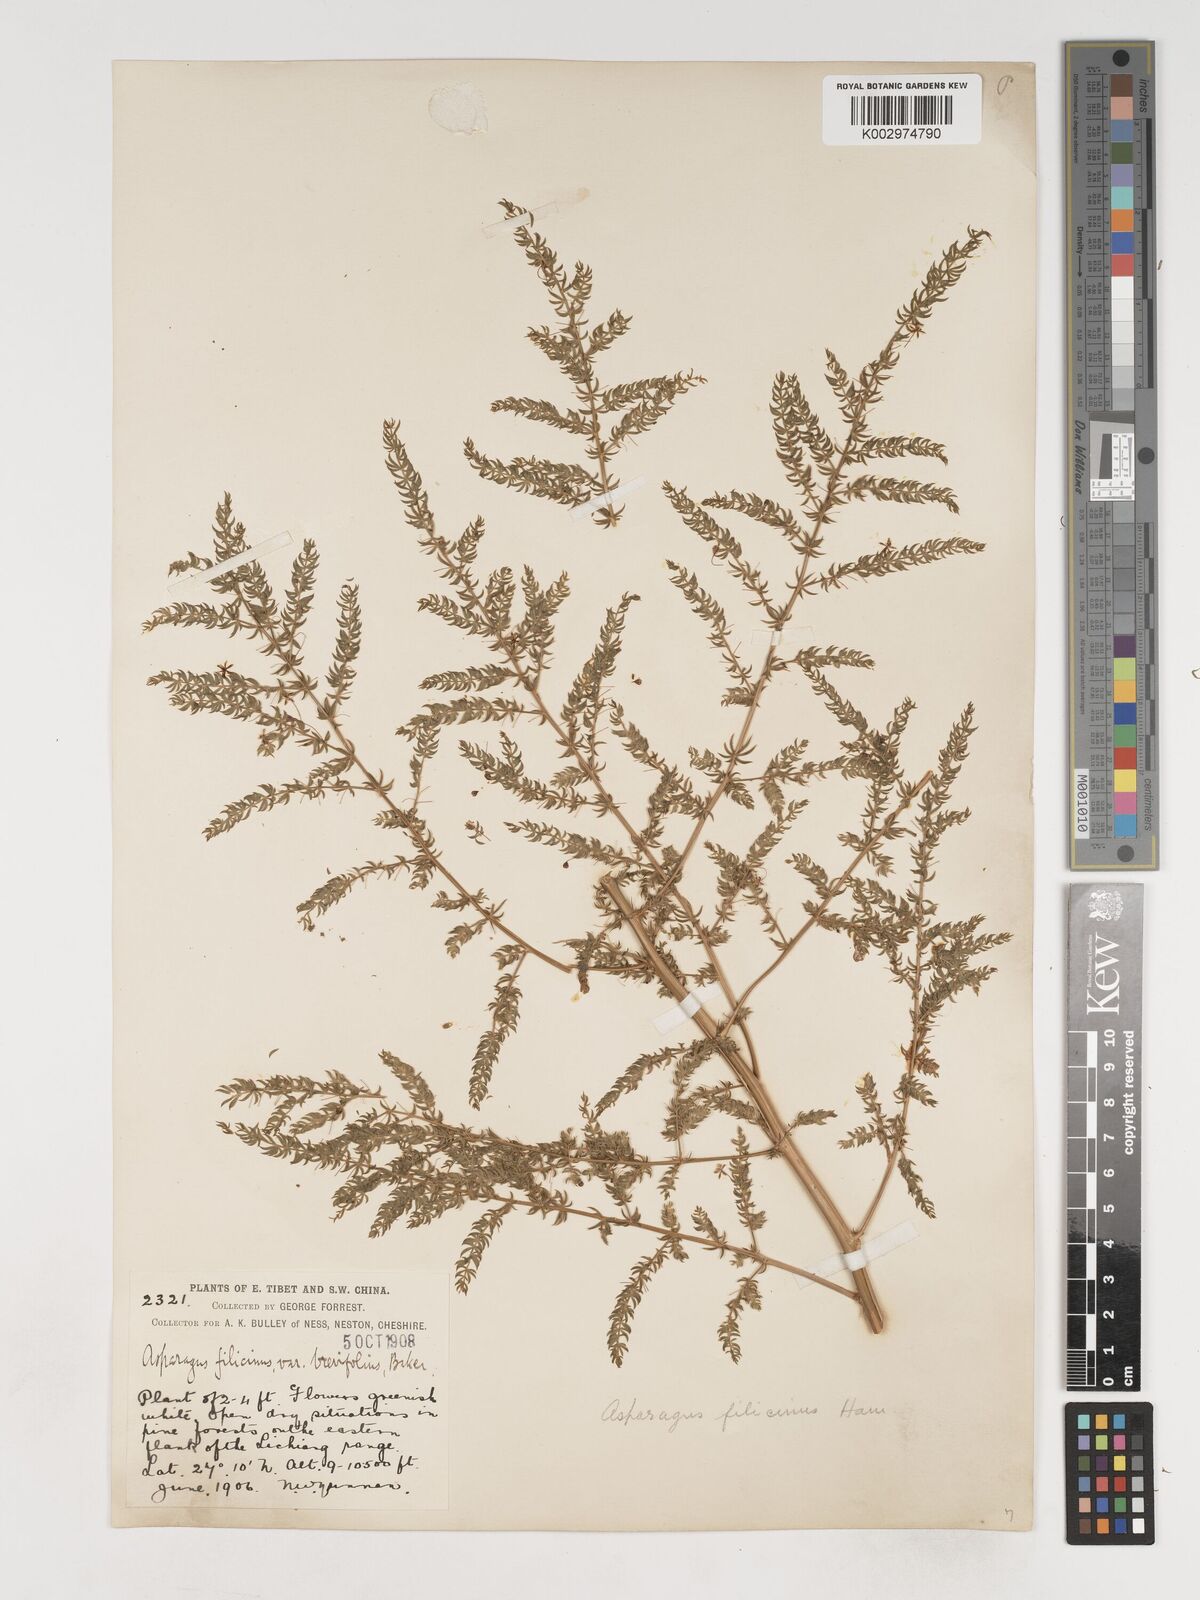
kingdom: Plantae
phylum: Tracheophyta
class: Liliopsida
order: Asparagales
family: Asparagaceae
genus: Asparagus
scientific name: Asparagus filicinus
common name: Fern asparagus
